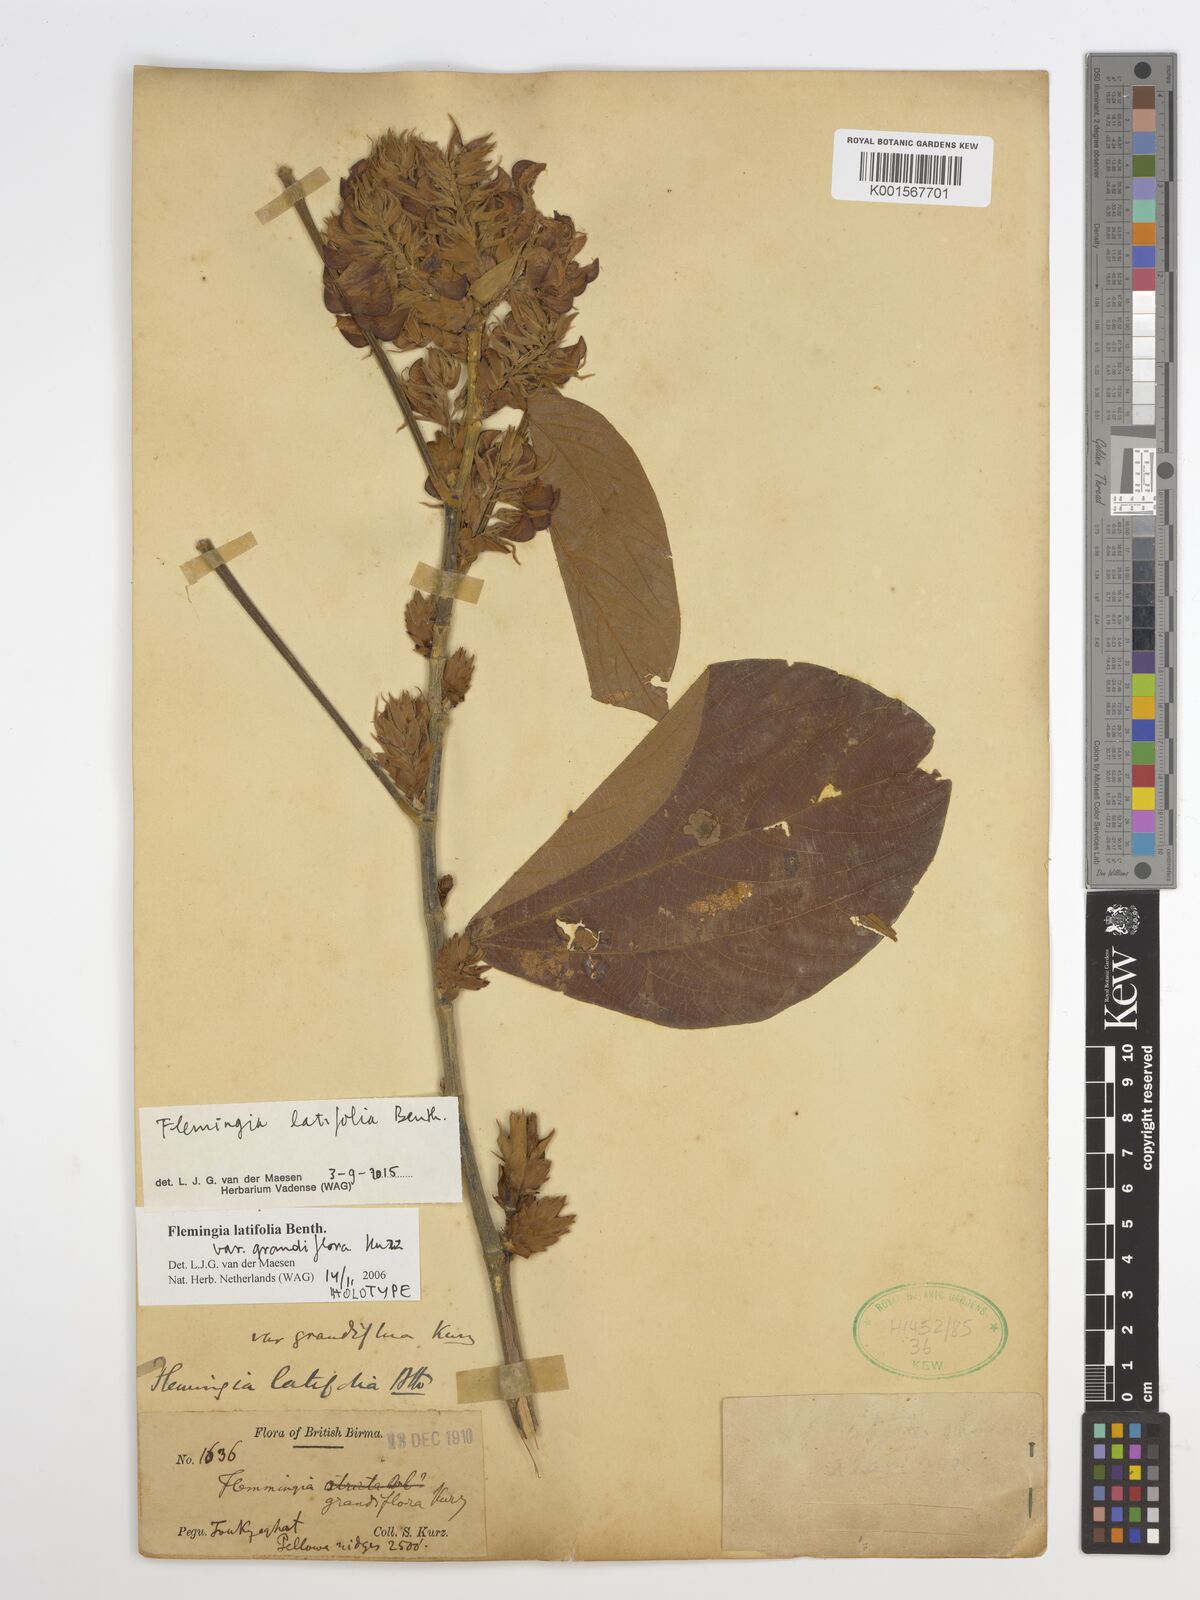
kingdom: Plantae
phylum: Tracheophyta
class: Magnoliopsida
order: Fabales
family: Fabaceae
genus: Flemingia
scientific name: Flemingia latifolia
